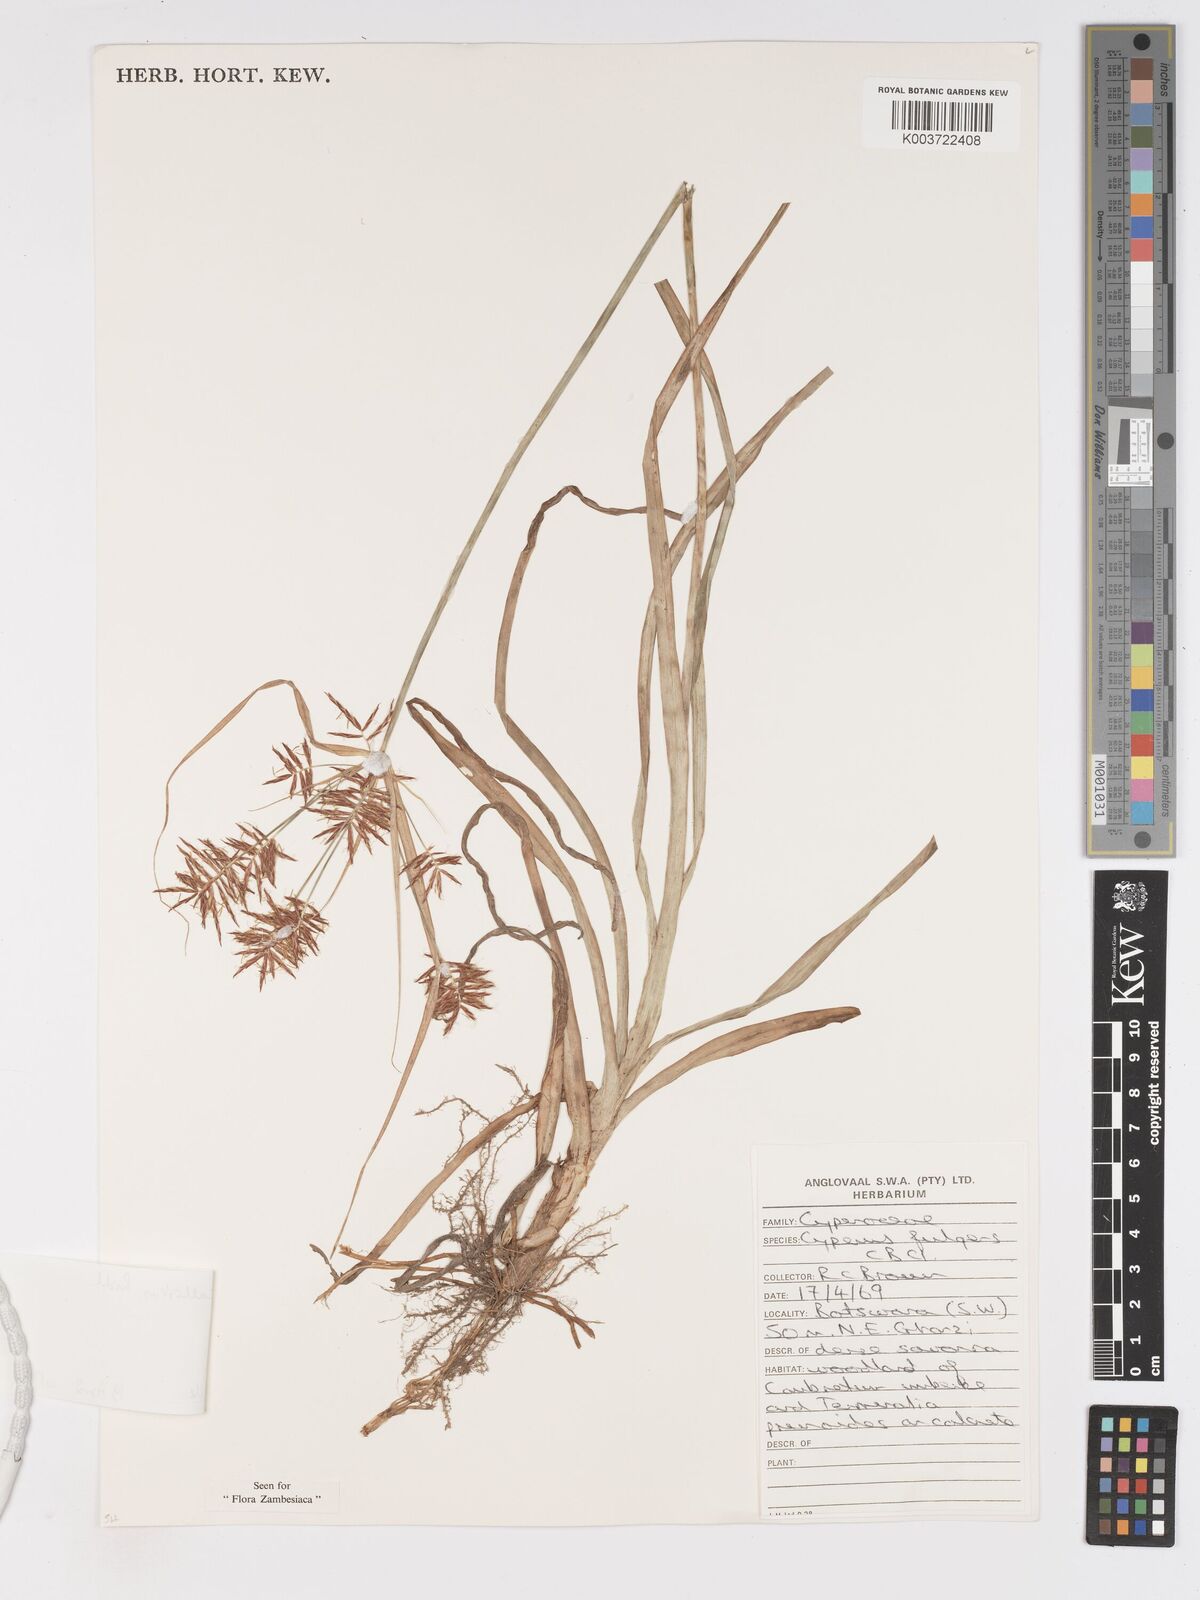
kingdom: Plantae
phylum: Tracheophyta
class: Liliopsida
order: Poales
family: Cyperaceae
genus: Cyperus
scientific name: Cyperus callistus
